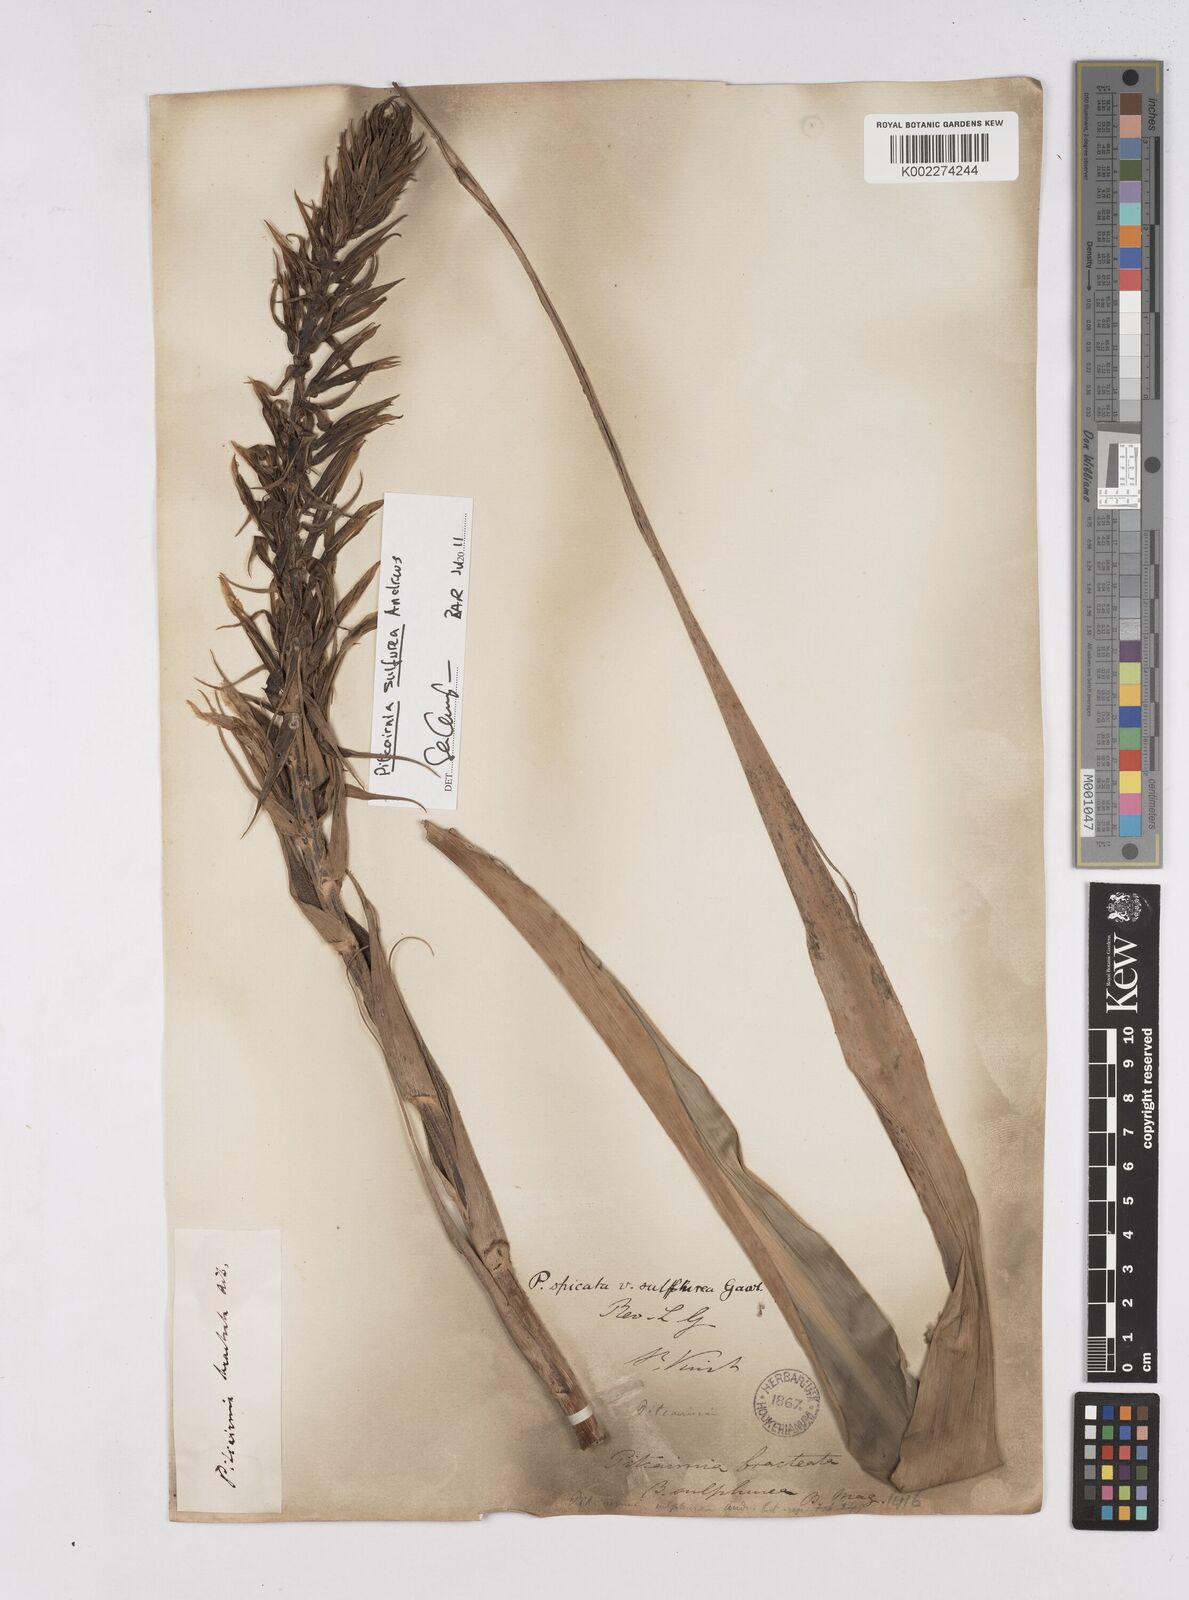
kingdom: Plantae
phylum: Tracheophyta
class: Liliopsida
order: Poales
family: Bromeliaceae
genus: Pitcairnia
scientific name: Pitcairnia spicata
